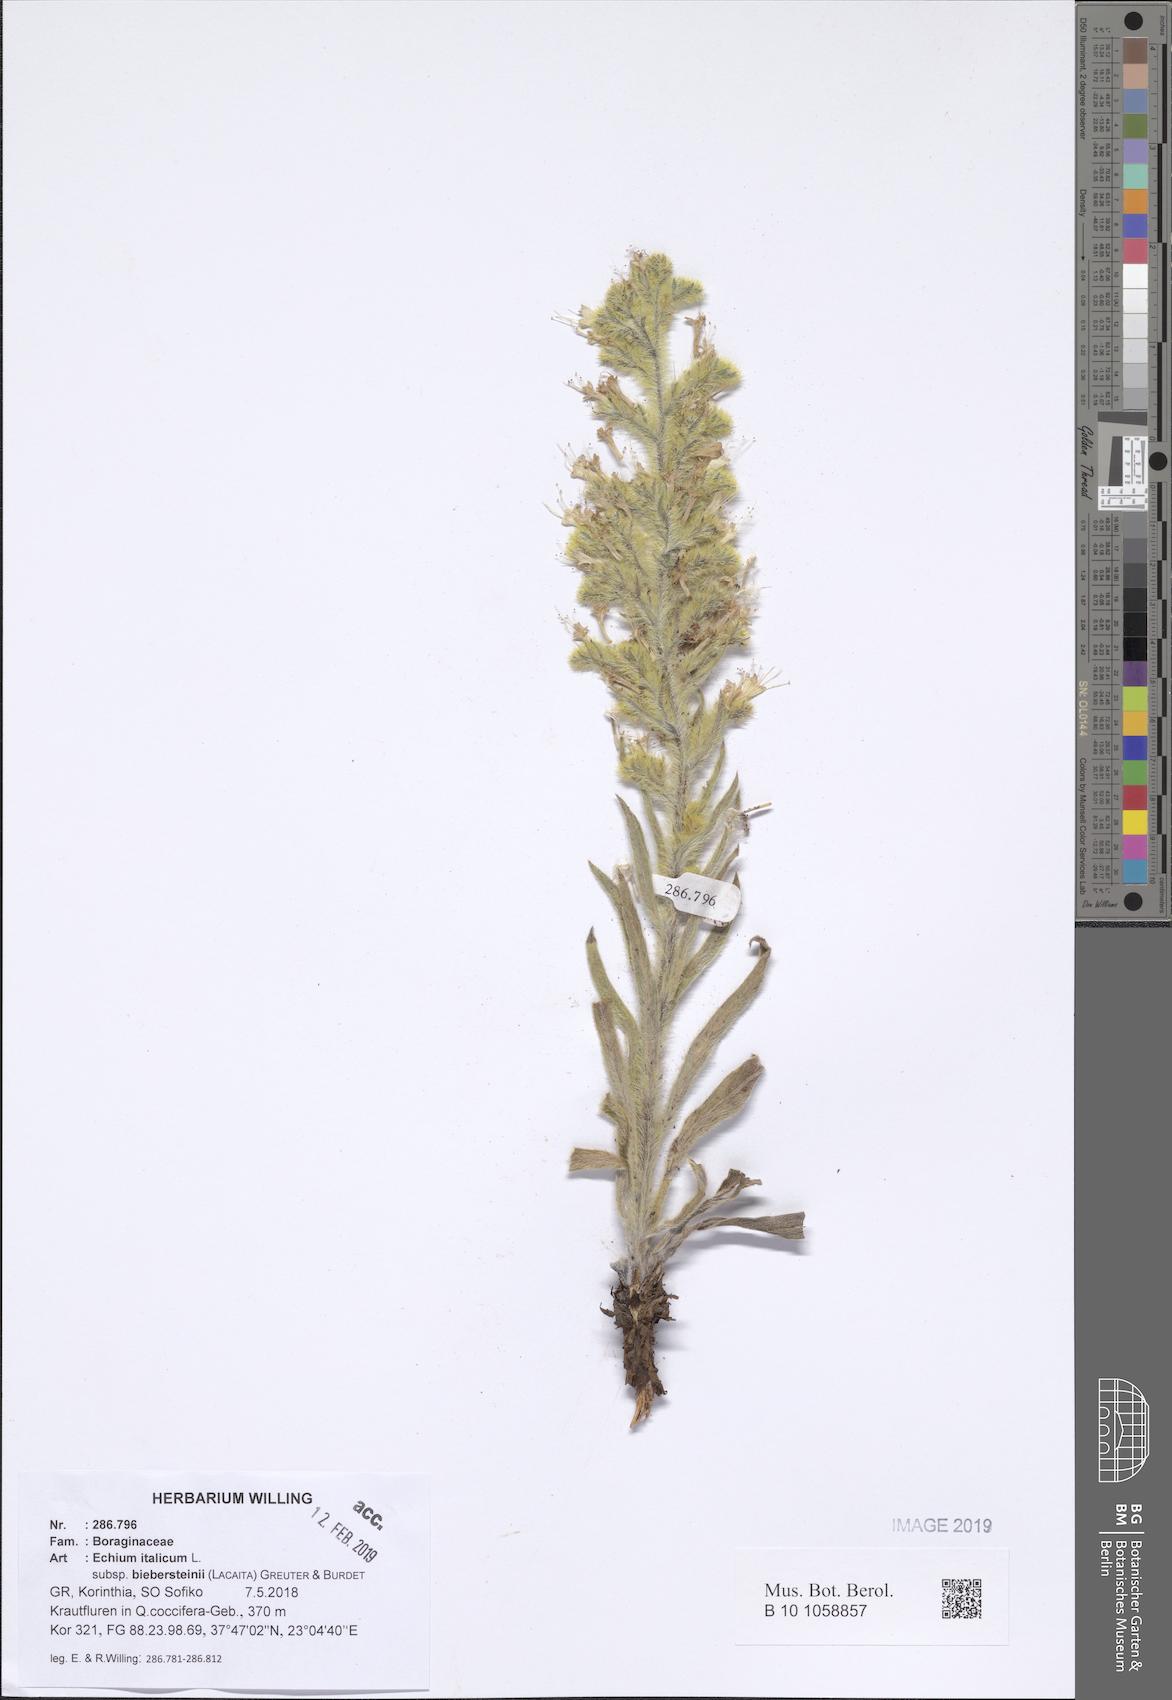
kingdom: Plantae
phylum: Tracheophyta
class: Magnoliopsida
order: Boraginales
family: Boraginaceae
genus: Echium
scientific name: Echium italicum
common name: Italian viper's bugloss
